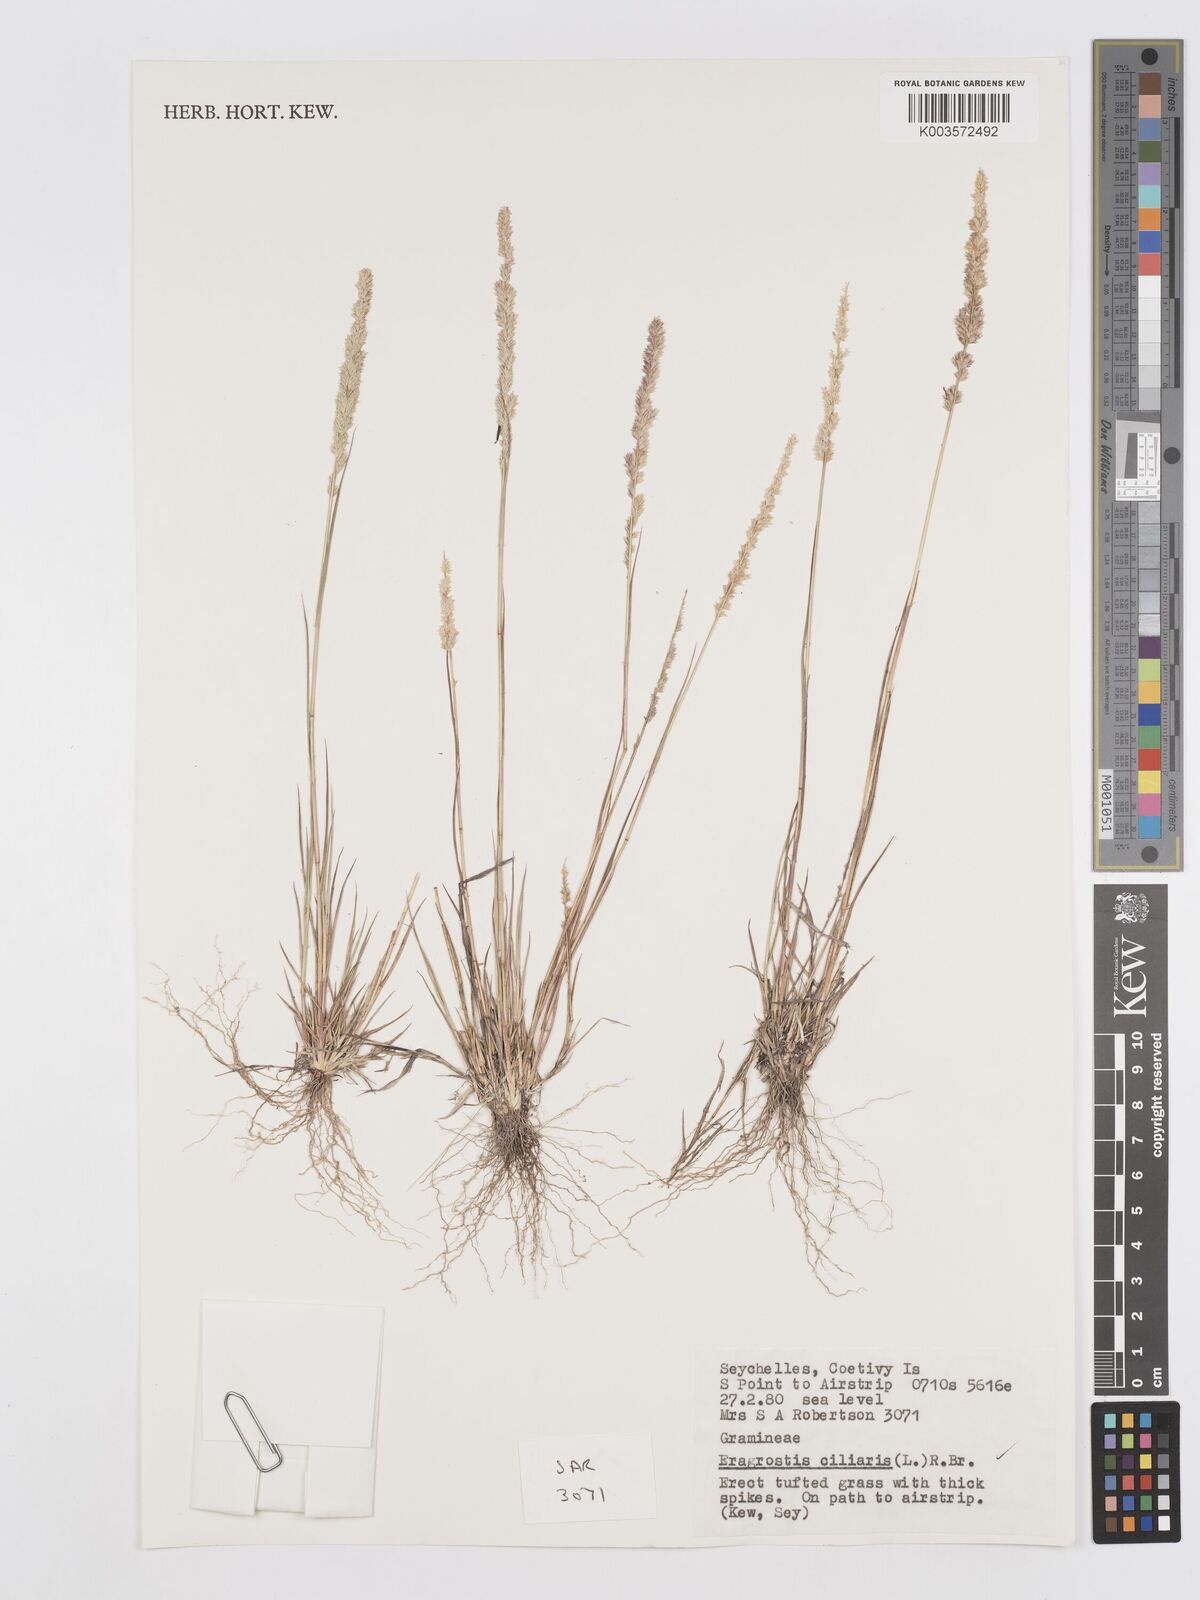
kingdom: Plantae
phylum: Tracheophyta
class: Liliopsida
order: Poales
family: Poaceae
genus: Eragrostis
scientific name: Eragrostis ciliaris
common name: Gophertail lovegrass
